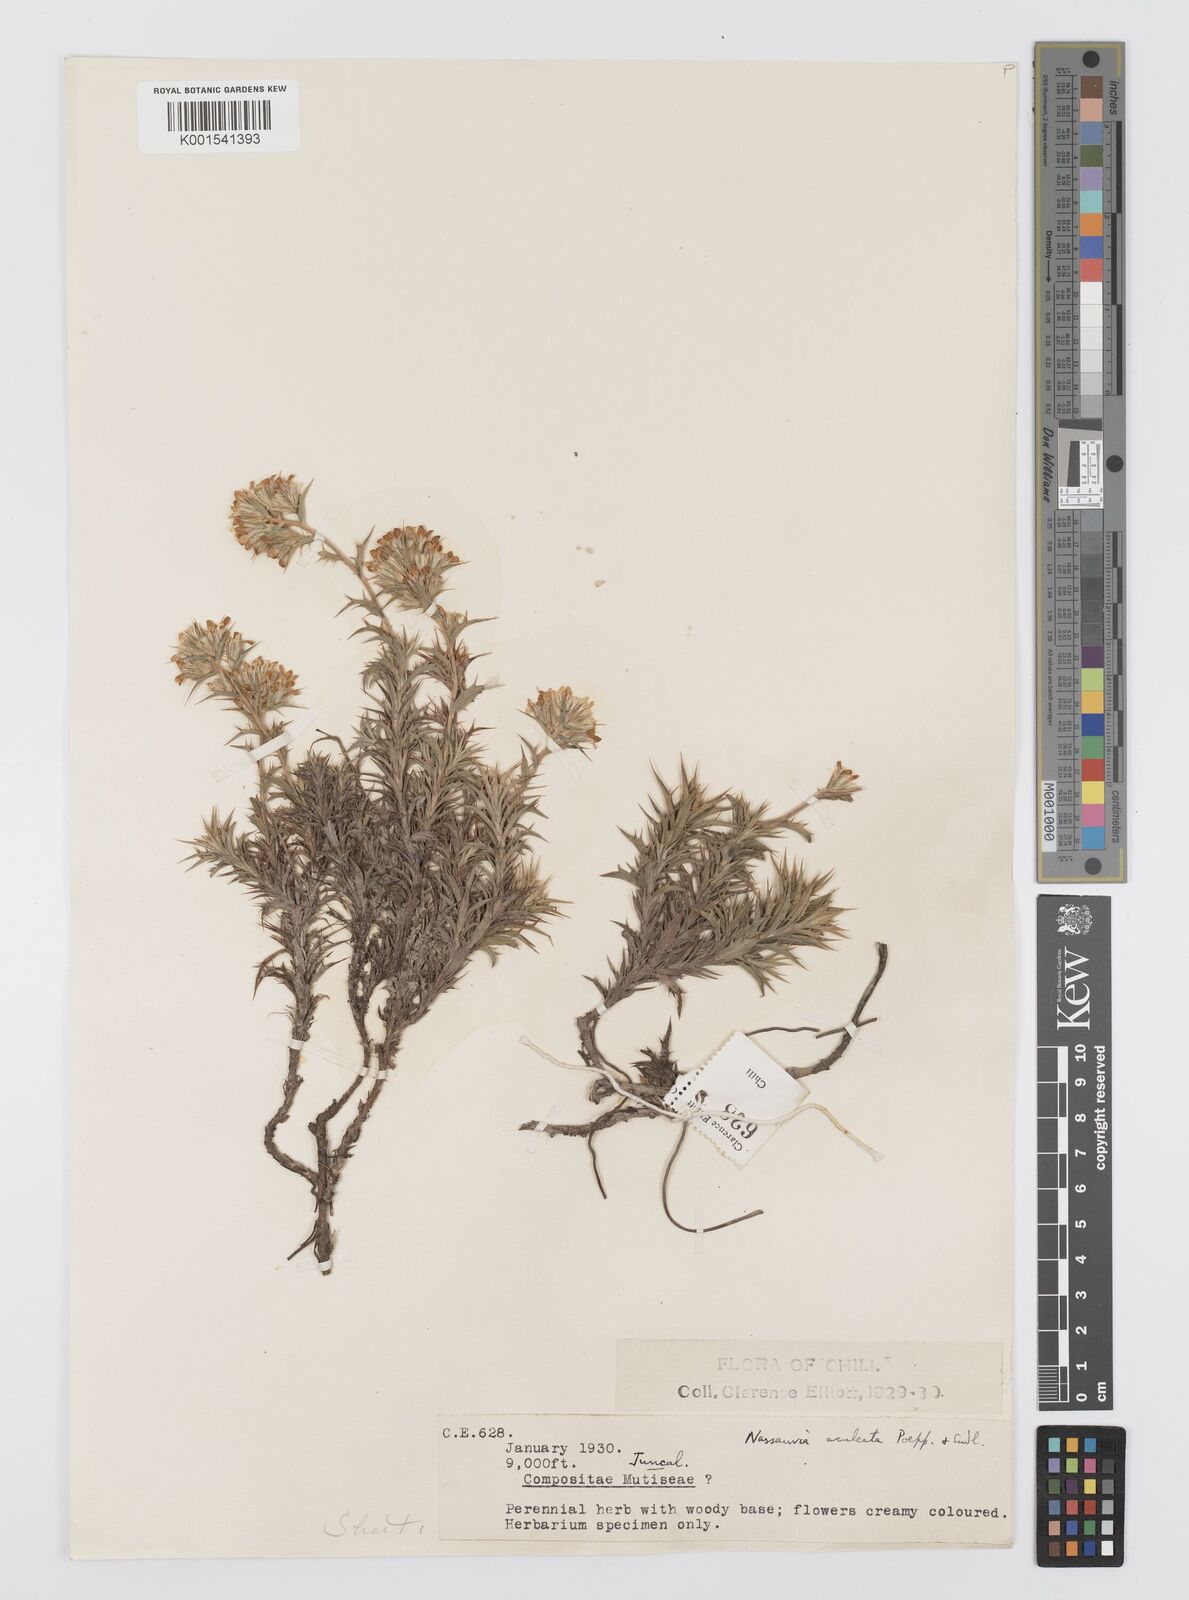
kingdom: Plantae
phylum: Tracheophyta
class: Magnoliopsida
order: Asterales
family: Asteraceae
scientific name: Asteraceae
